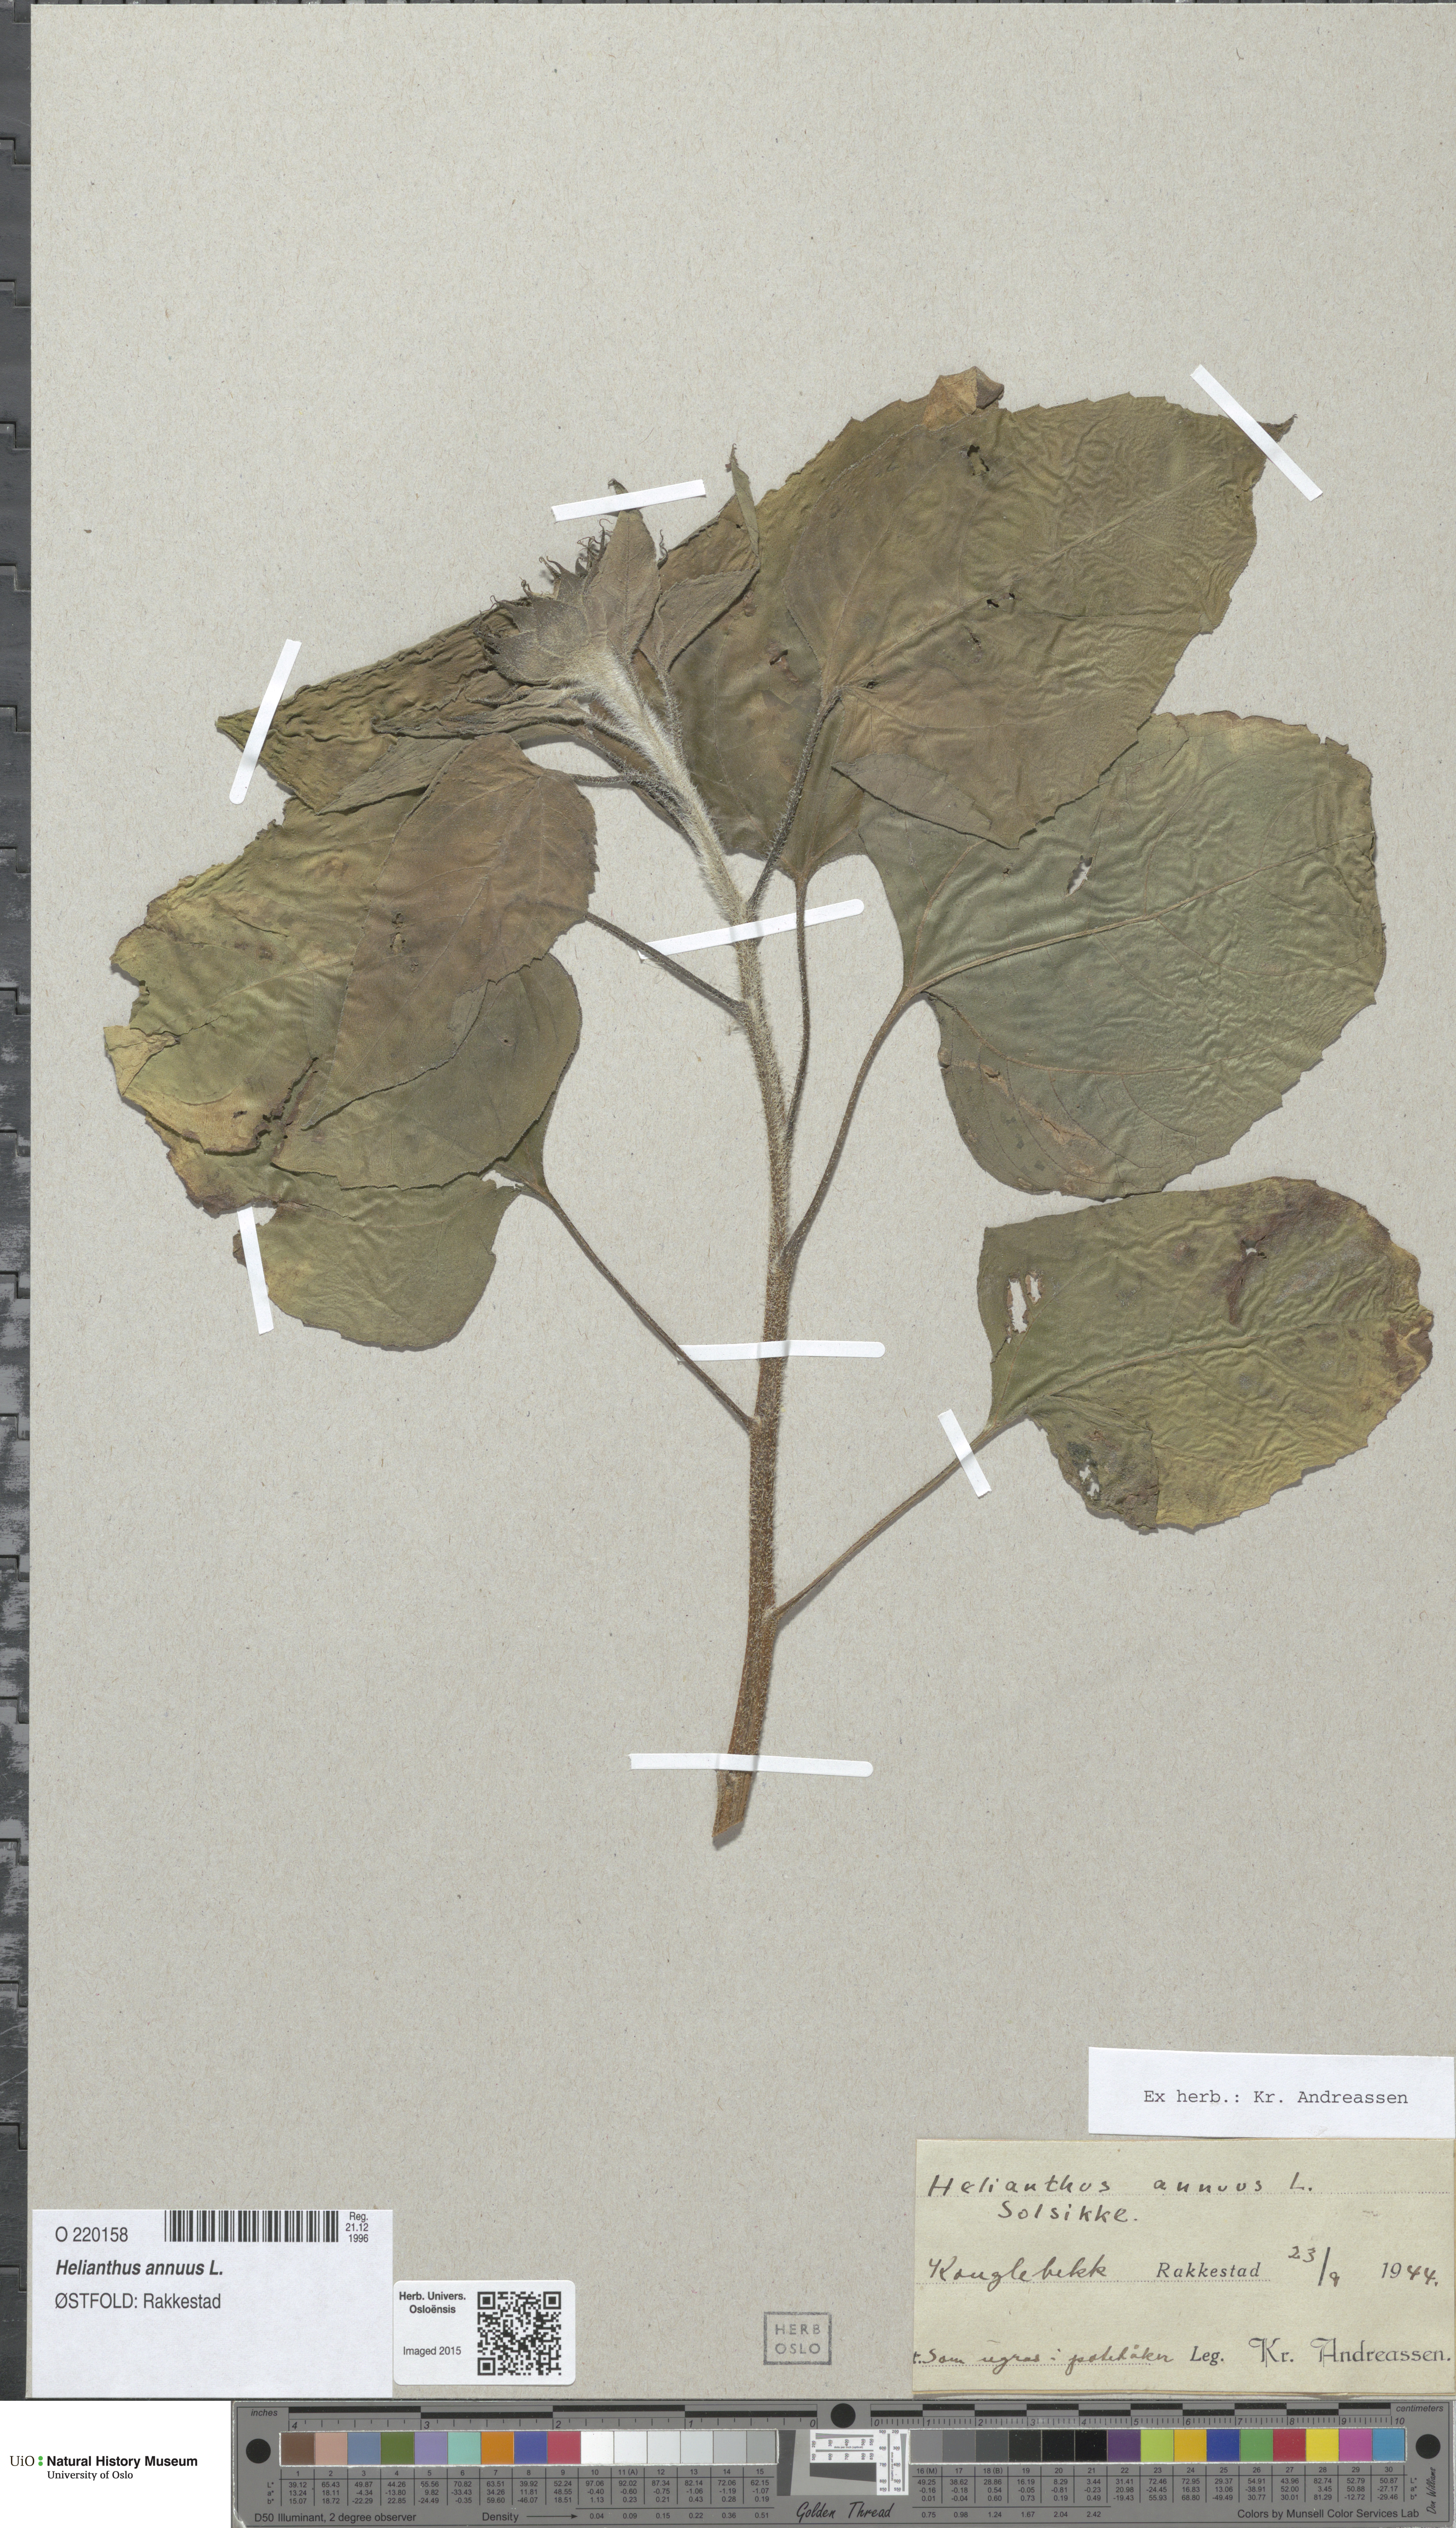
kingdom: Plantae
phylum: Tracheophyta
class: Magnoliopsida
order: Asterales
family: Asteraceae
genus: Helianthus
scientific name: Helianthus annuus
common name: Sunflower
